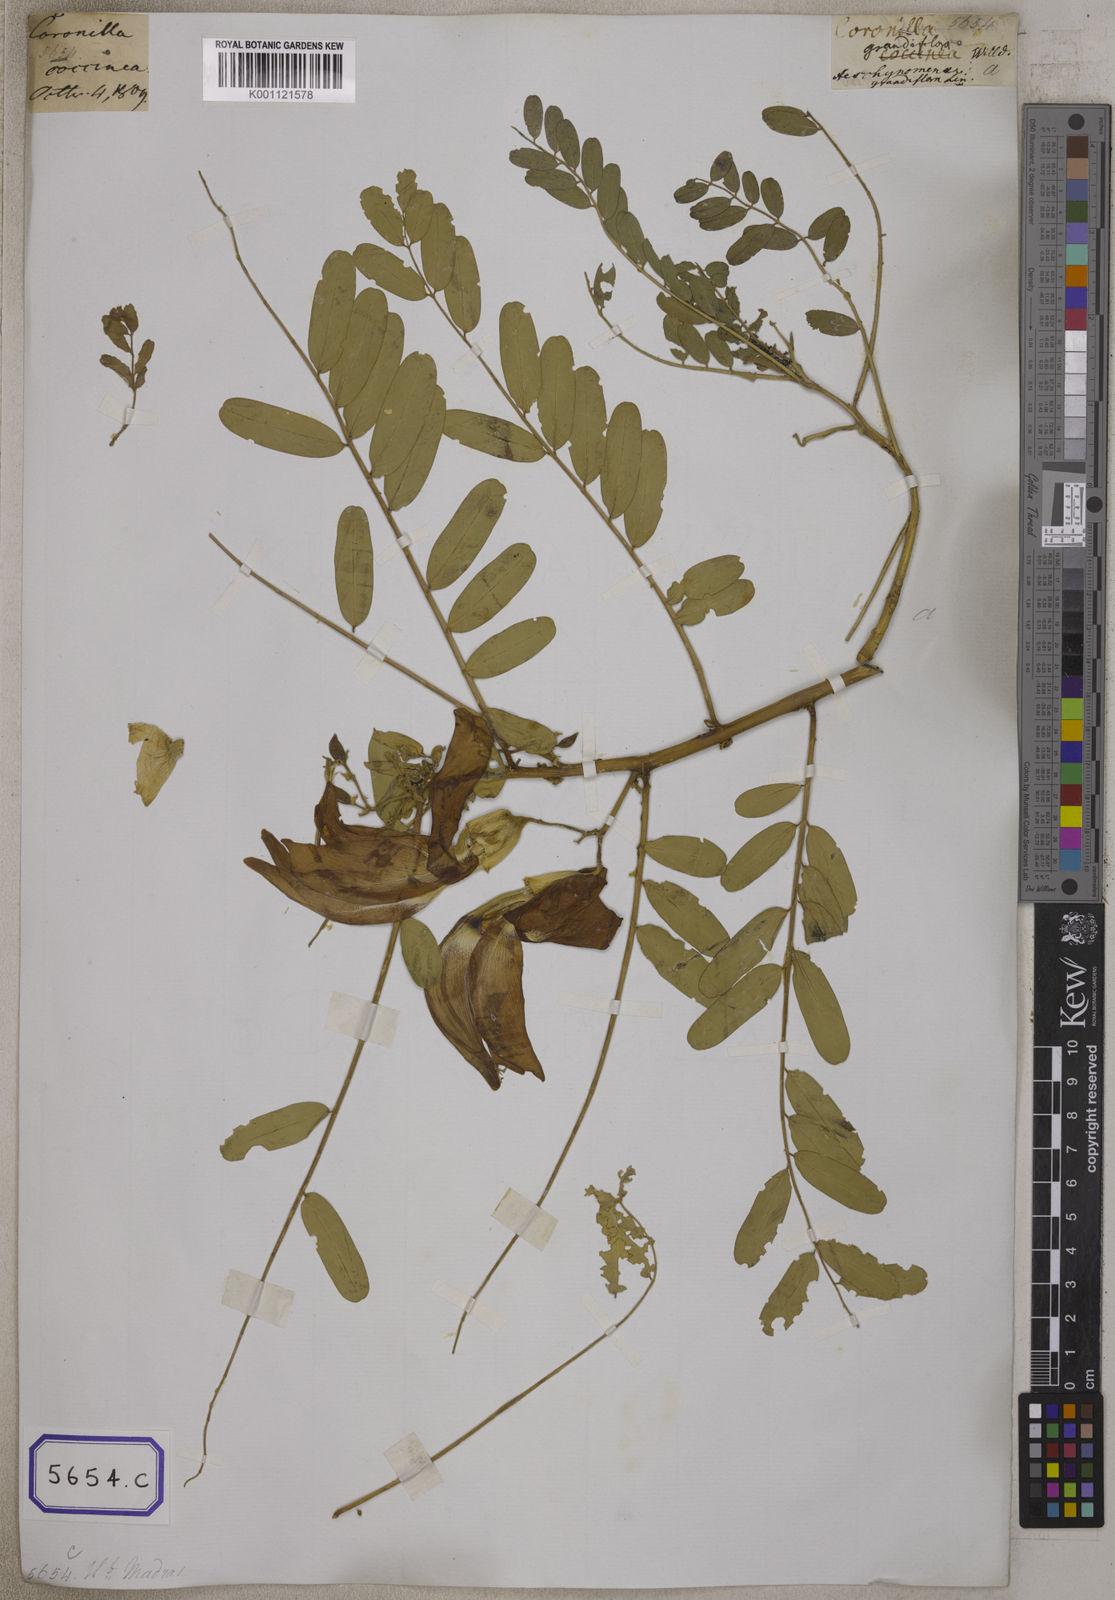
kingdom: Plantae
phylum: Tracheophyta
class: Magnoliopsida
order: Fabales
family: Fabaceae
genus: Sesbania
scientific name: Sesbania grandiflora
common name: Vegetable-hummingbird
